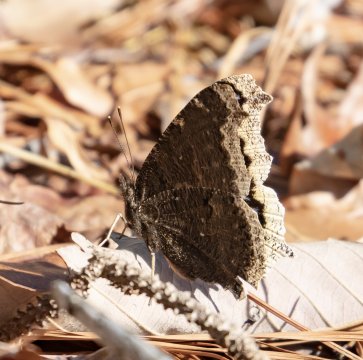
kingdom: Animalia
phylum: Arthropoda
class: Insecta
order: Lepidoptera
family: Nymphalidae
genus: Nymphalis
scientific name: Nymphalis antiopa
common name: Mourning Cloak
